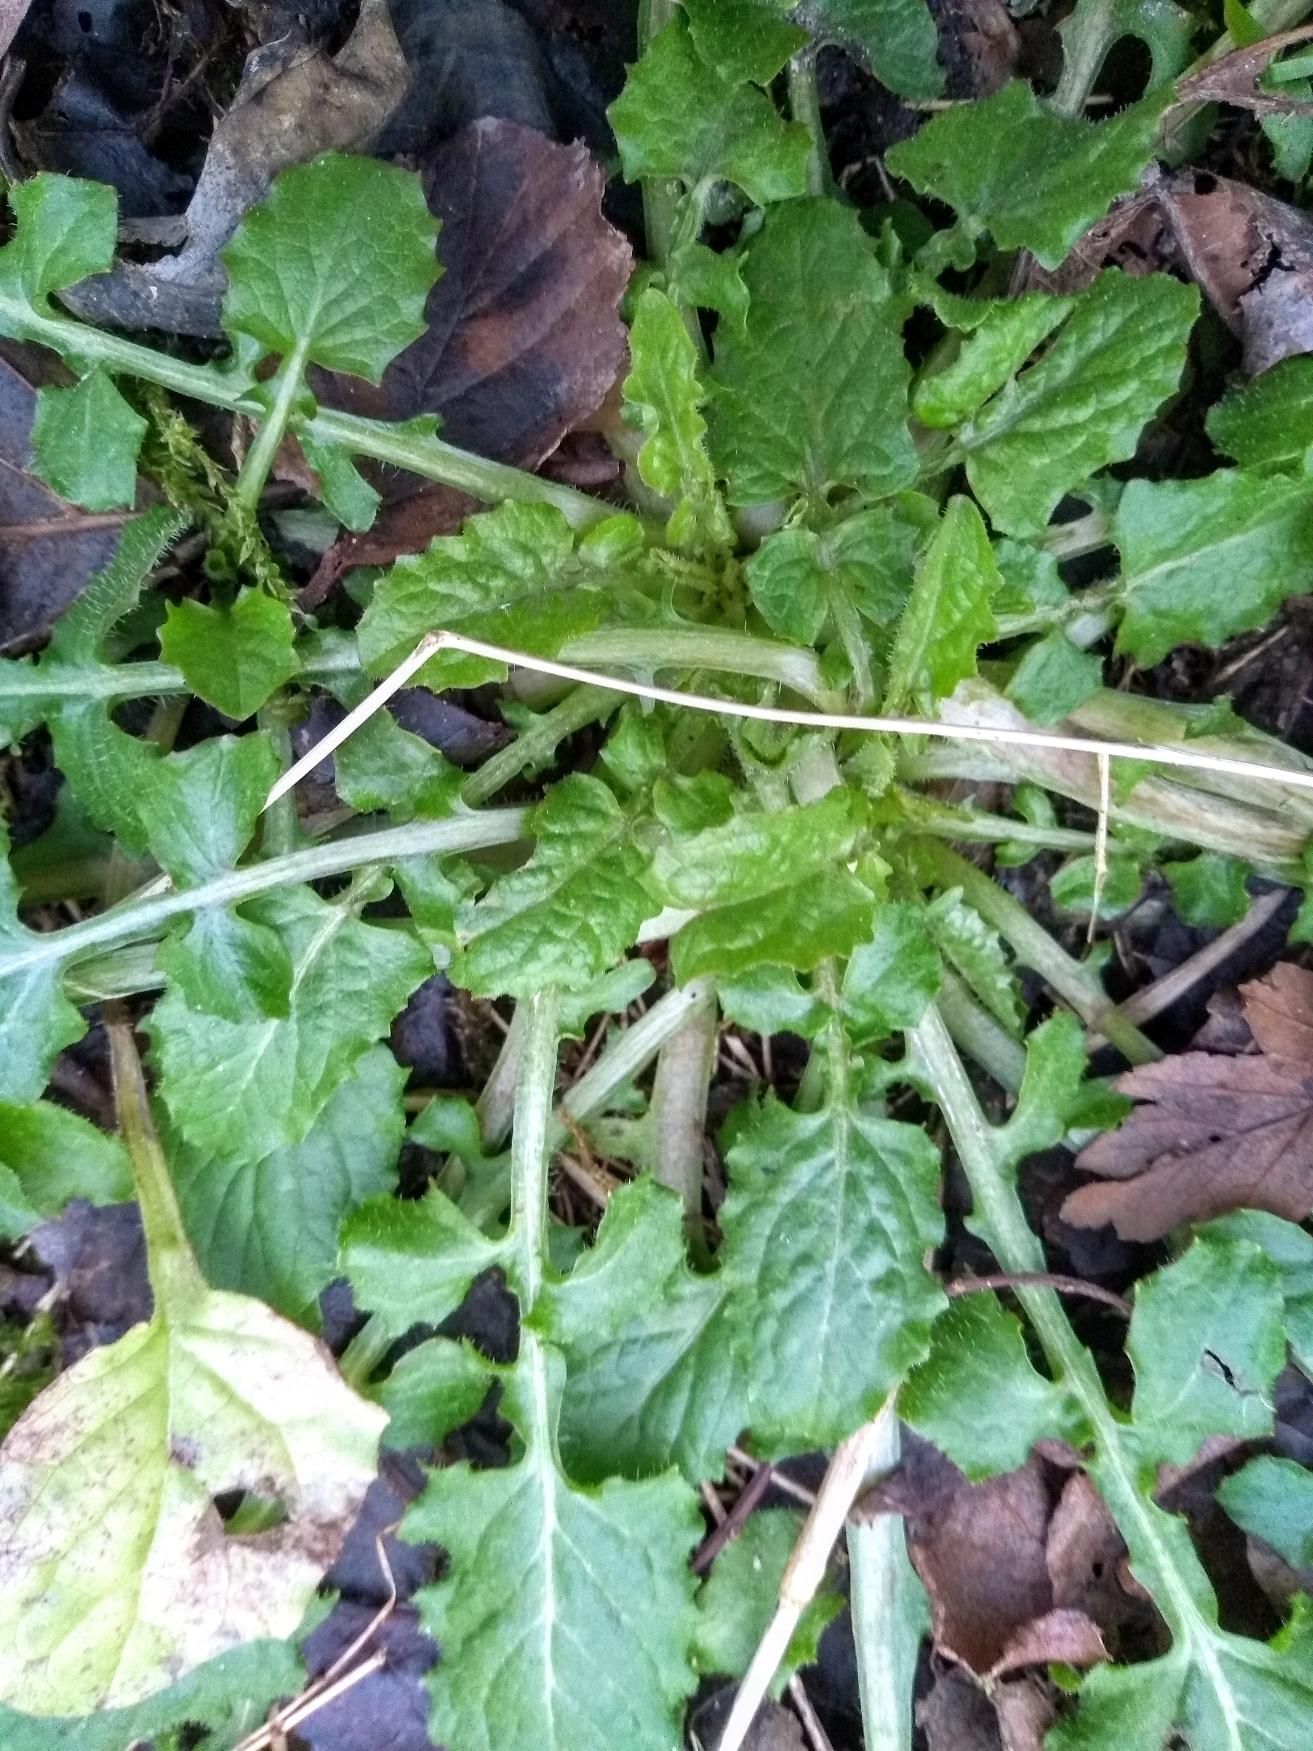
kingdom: Plantae
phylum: Tracheophyta
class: Magnoliopsida
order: Asterales
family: Asteraceae
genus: Lapsana
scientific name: Lapsana communis
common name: Haremad
